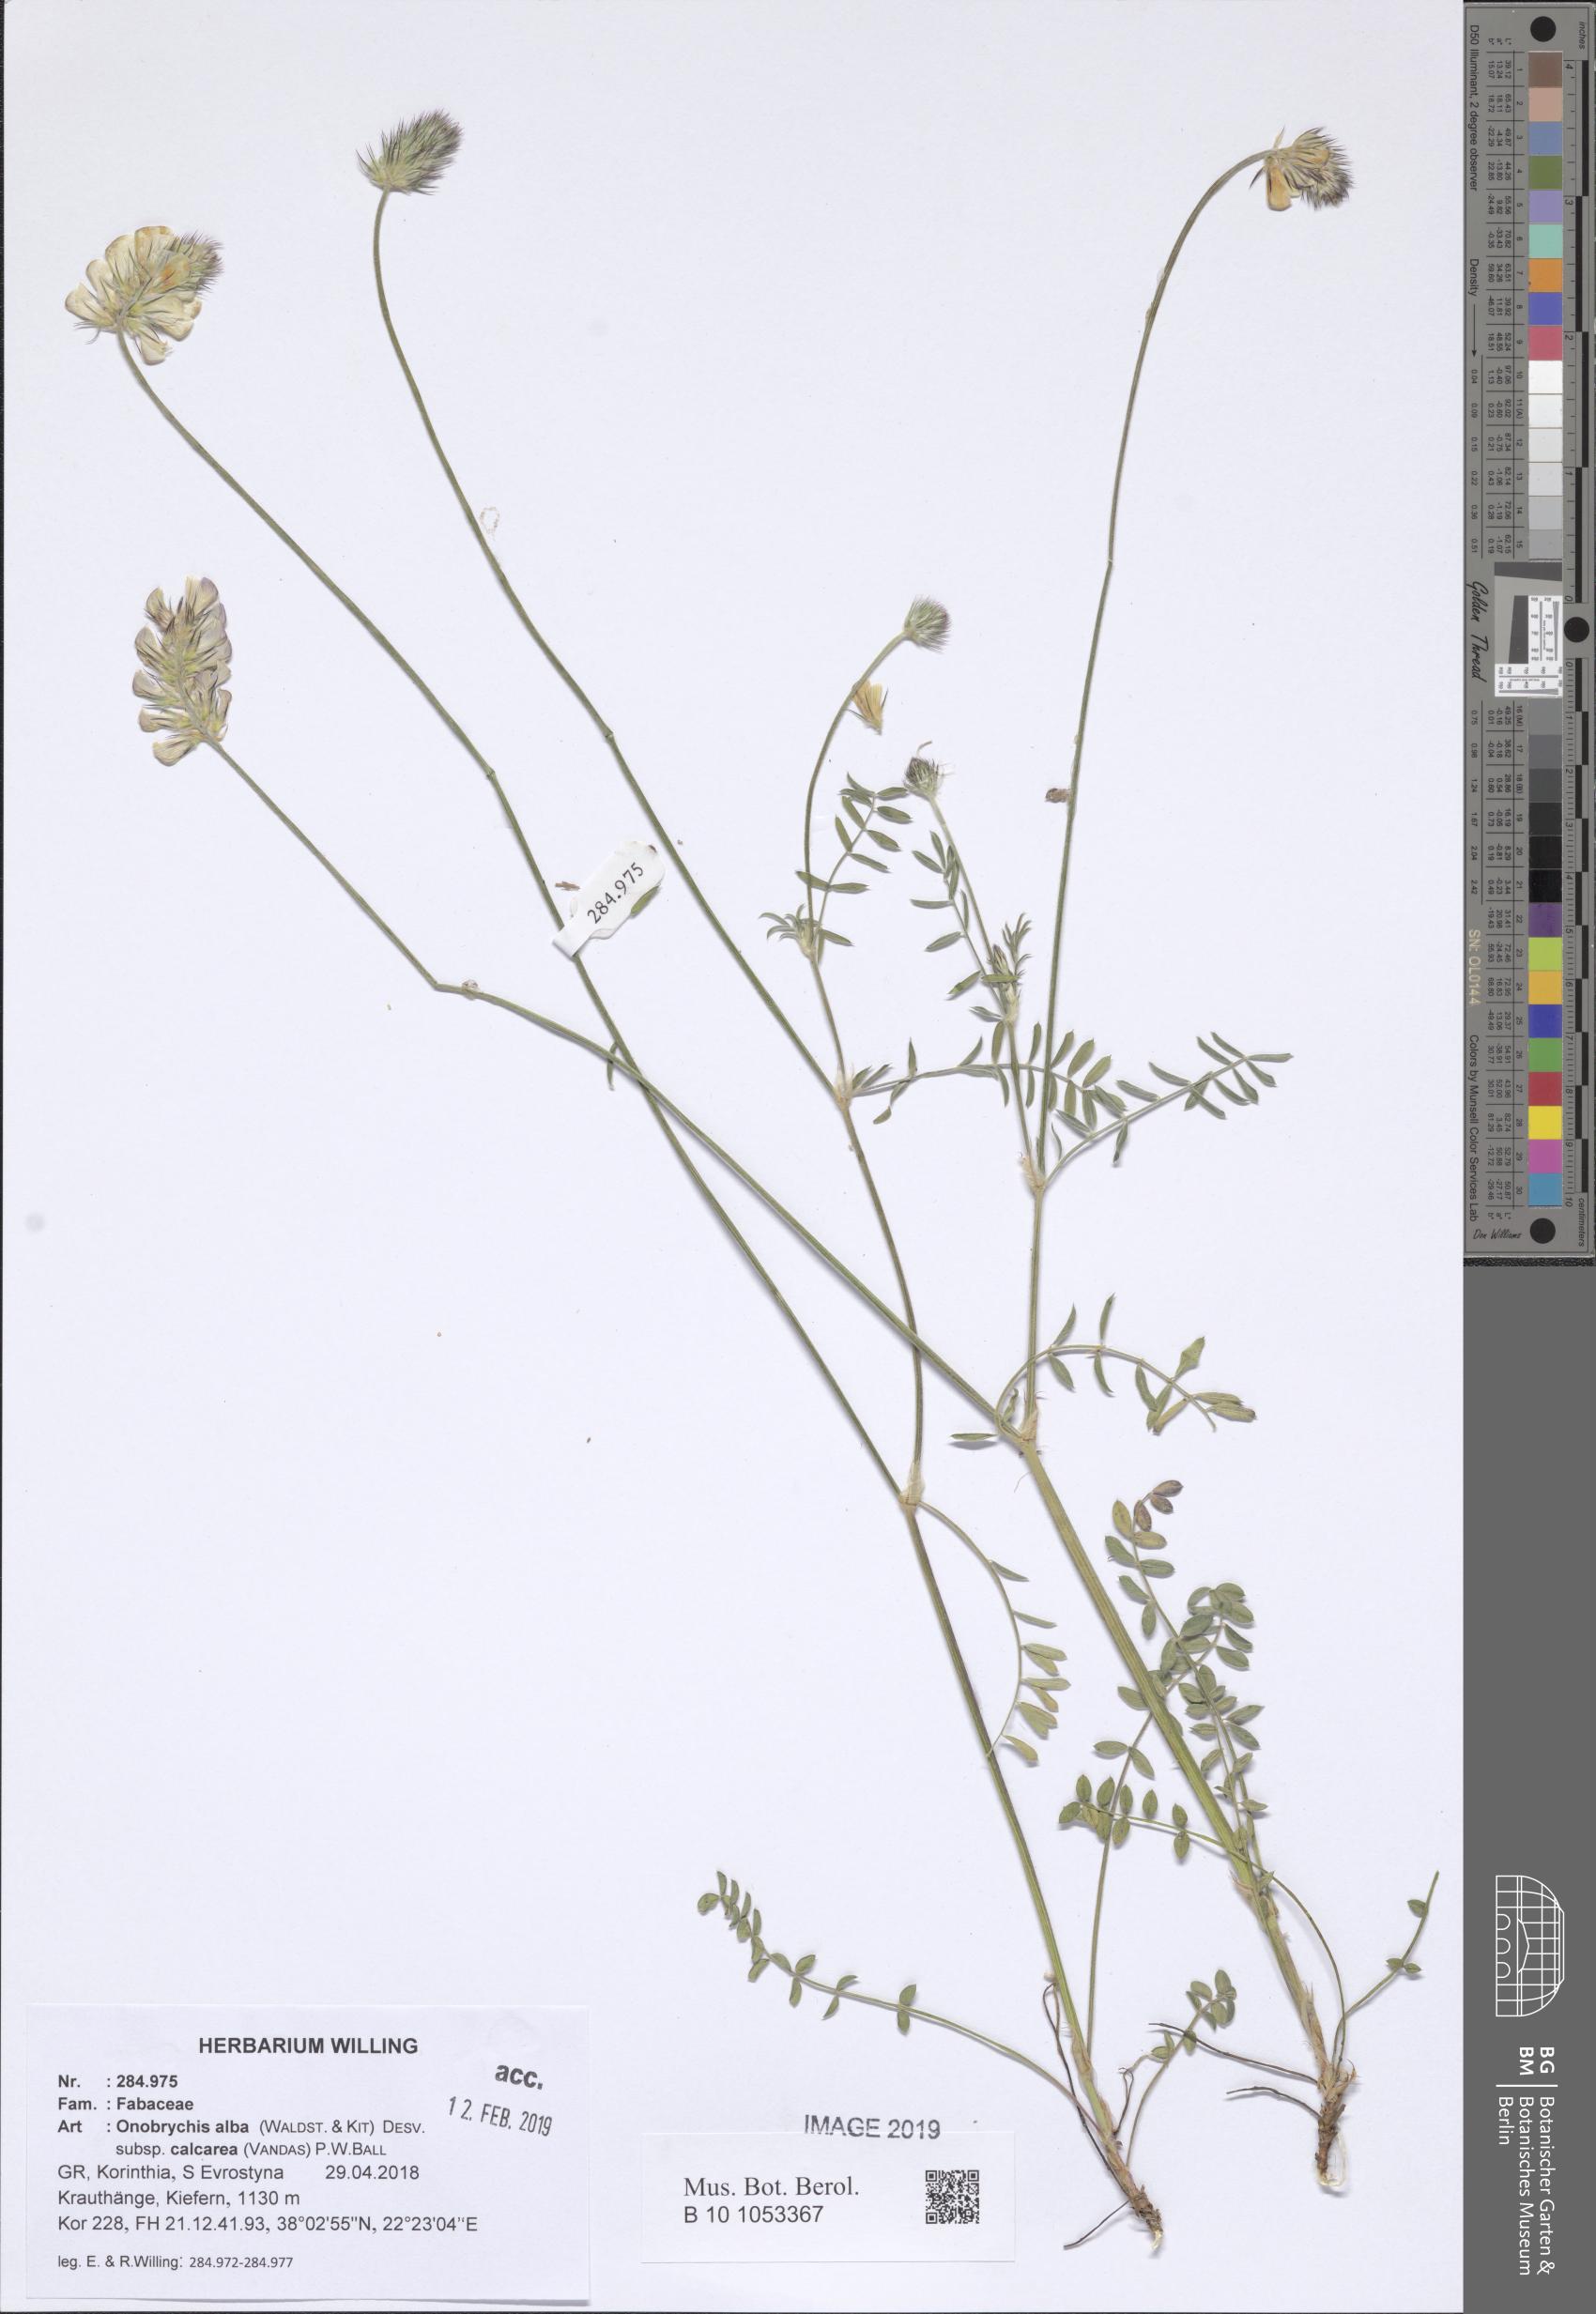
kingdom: Plantae
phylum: Tracheophyta
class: Magnoliopsida
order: Fabales
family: Fabaceae
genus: Onobrychis
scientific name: Onobrychis alba
